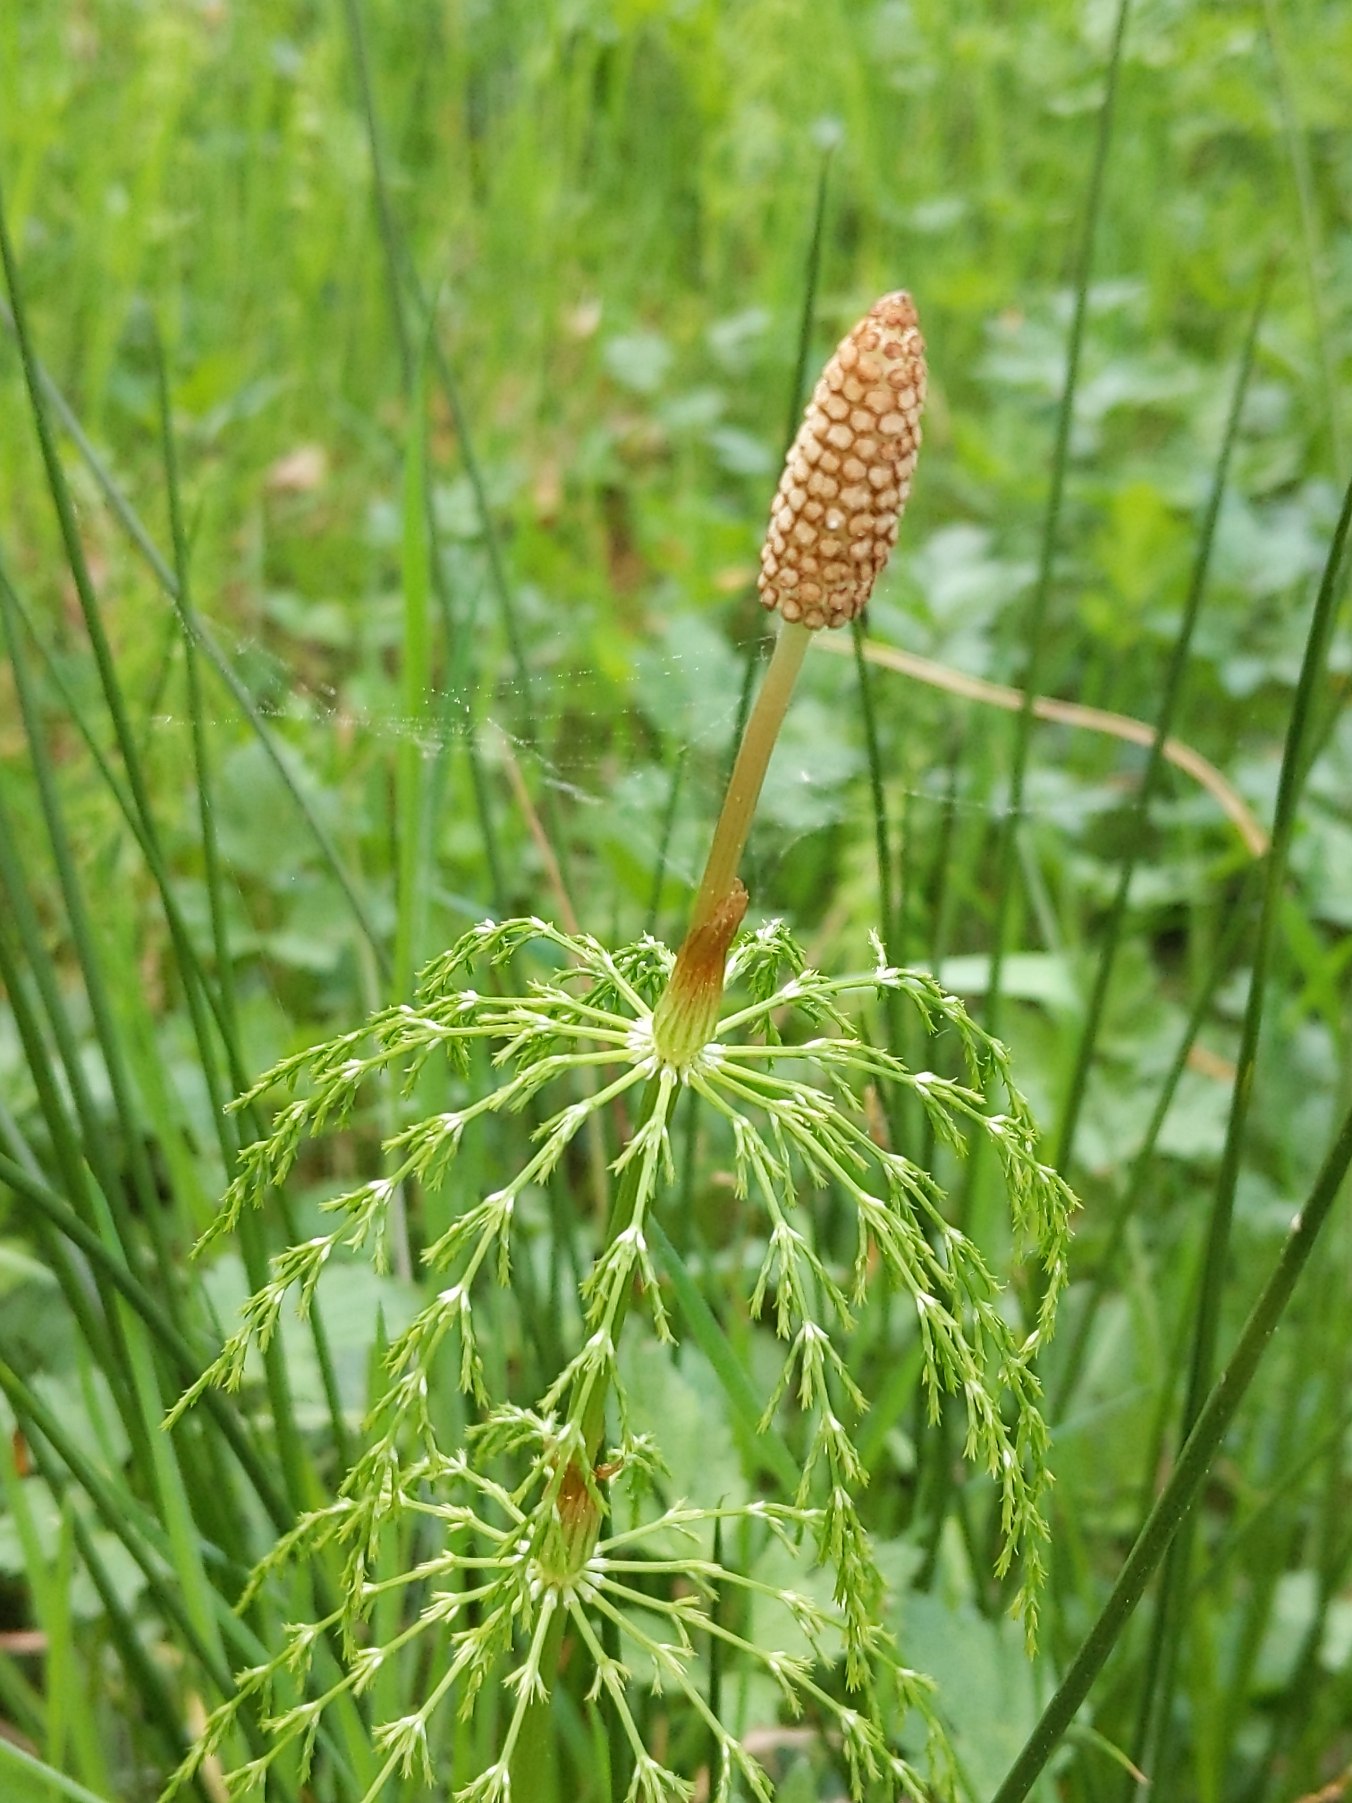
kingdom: Plantae
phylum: Tracheophyta
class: Polypodiopsida
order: Equisetales
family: Equisetaceae
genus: Equisetum
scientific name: Equisetum sylvaticum
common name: Skov-padderok
